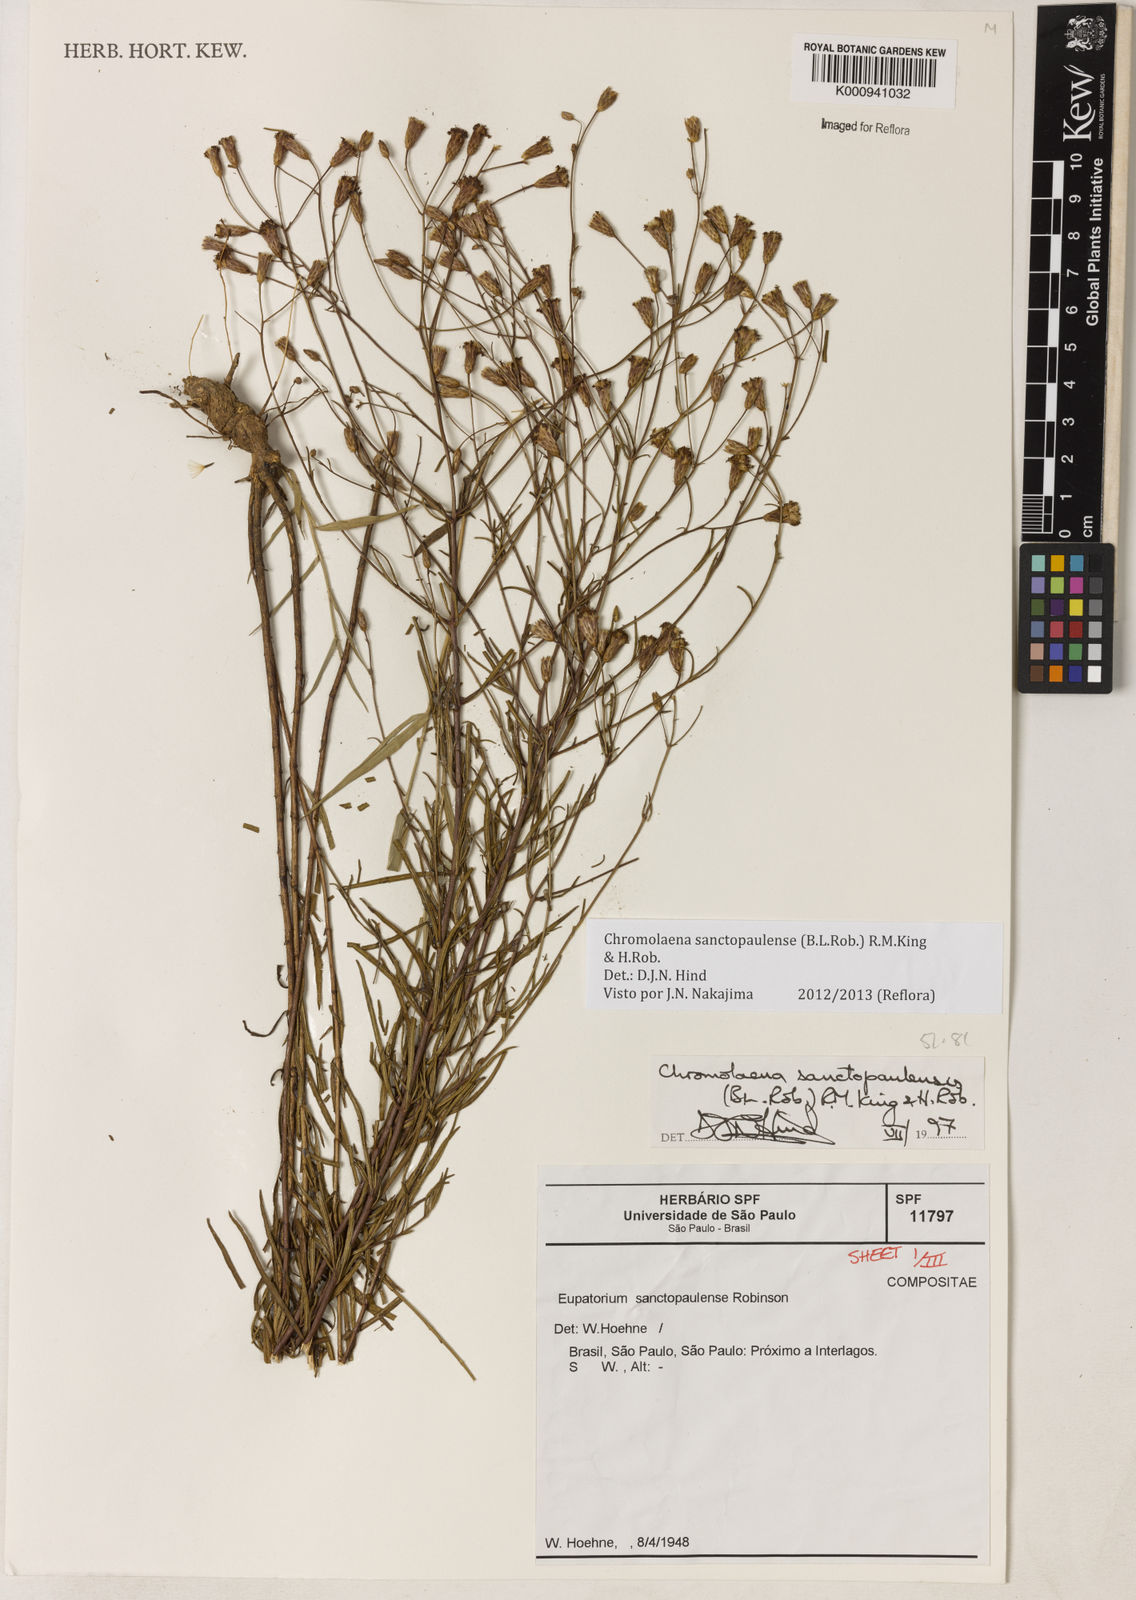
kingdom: Plantae
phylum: Tracheophyta
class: Magnoliopsida
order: Asterales
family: Asteraceae
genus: Chromolaena
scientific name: Chromolaena
